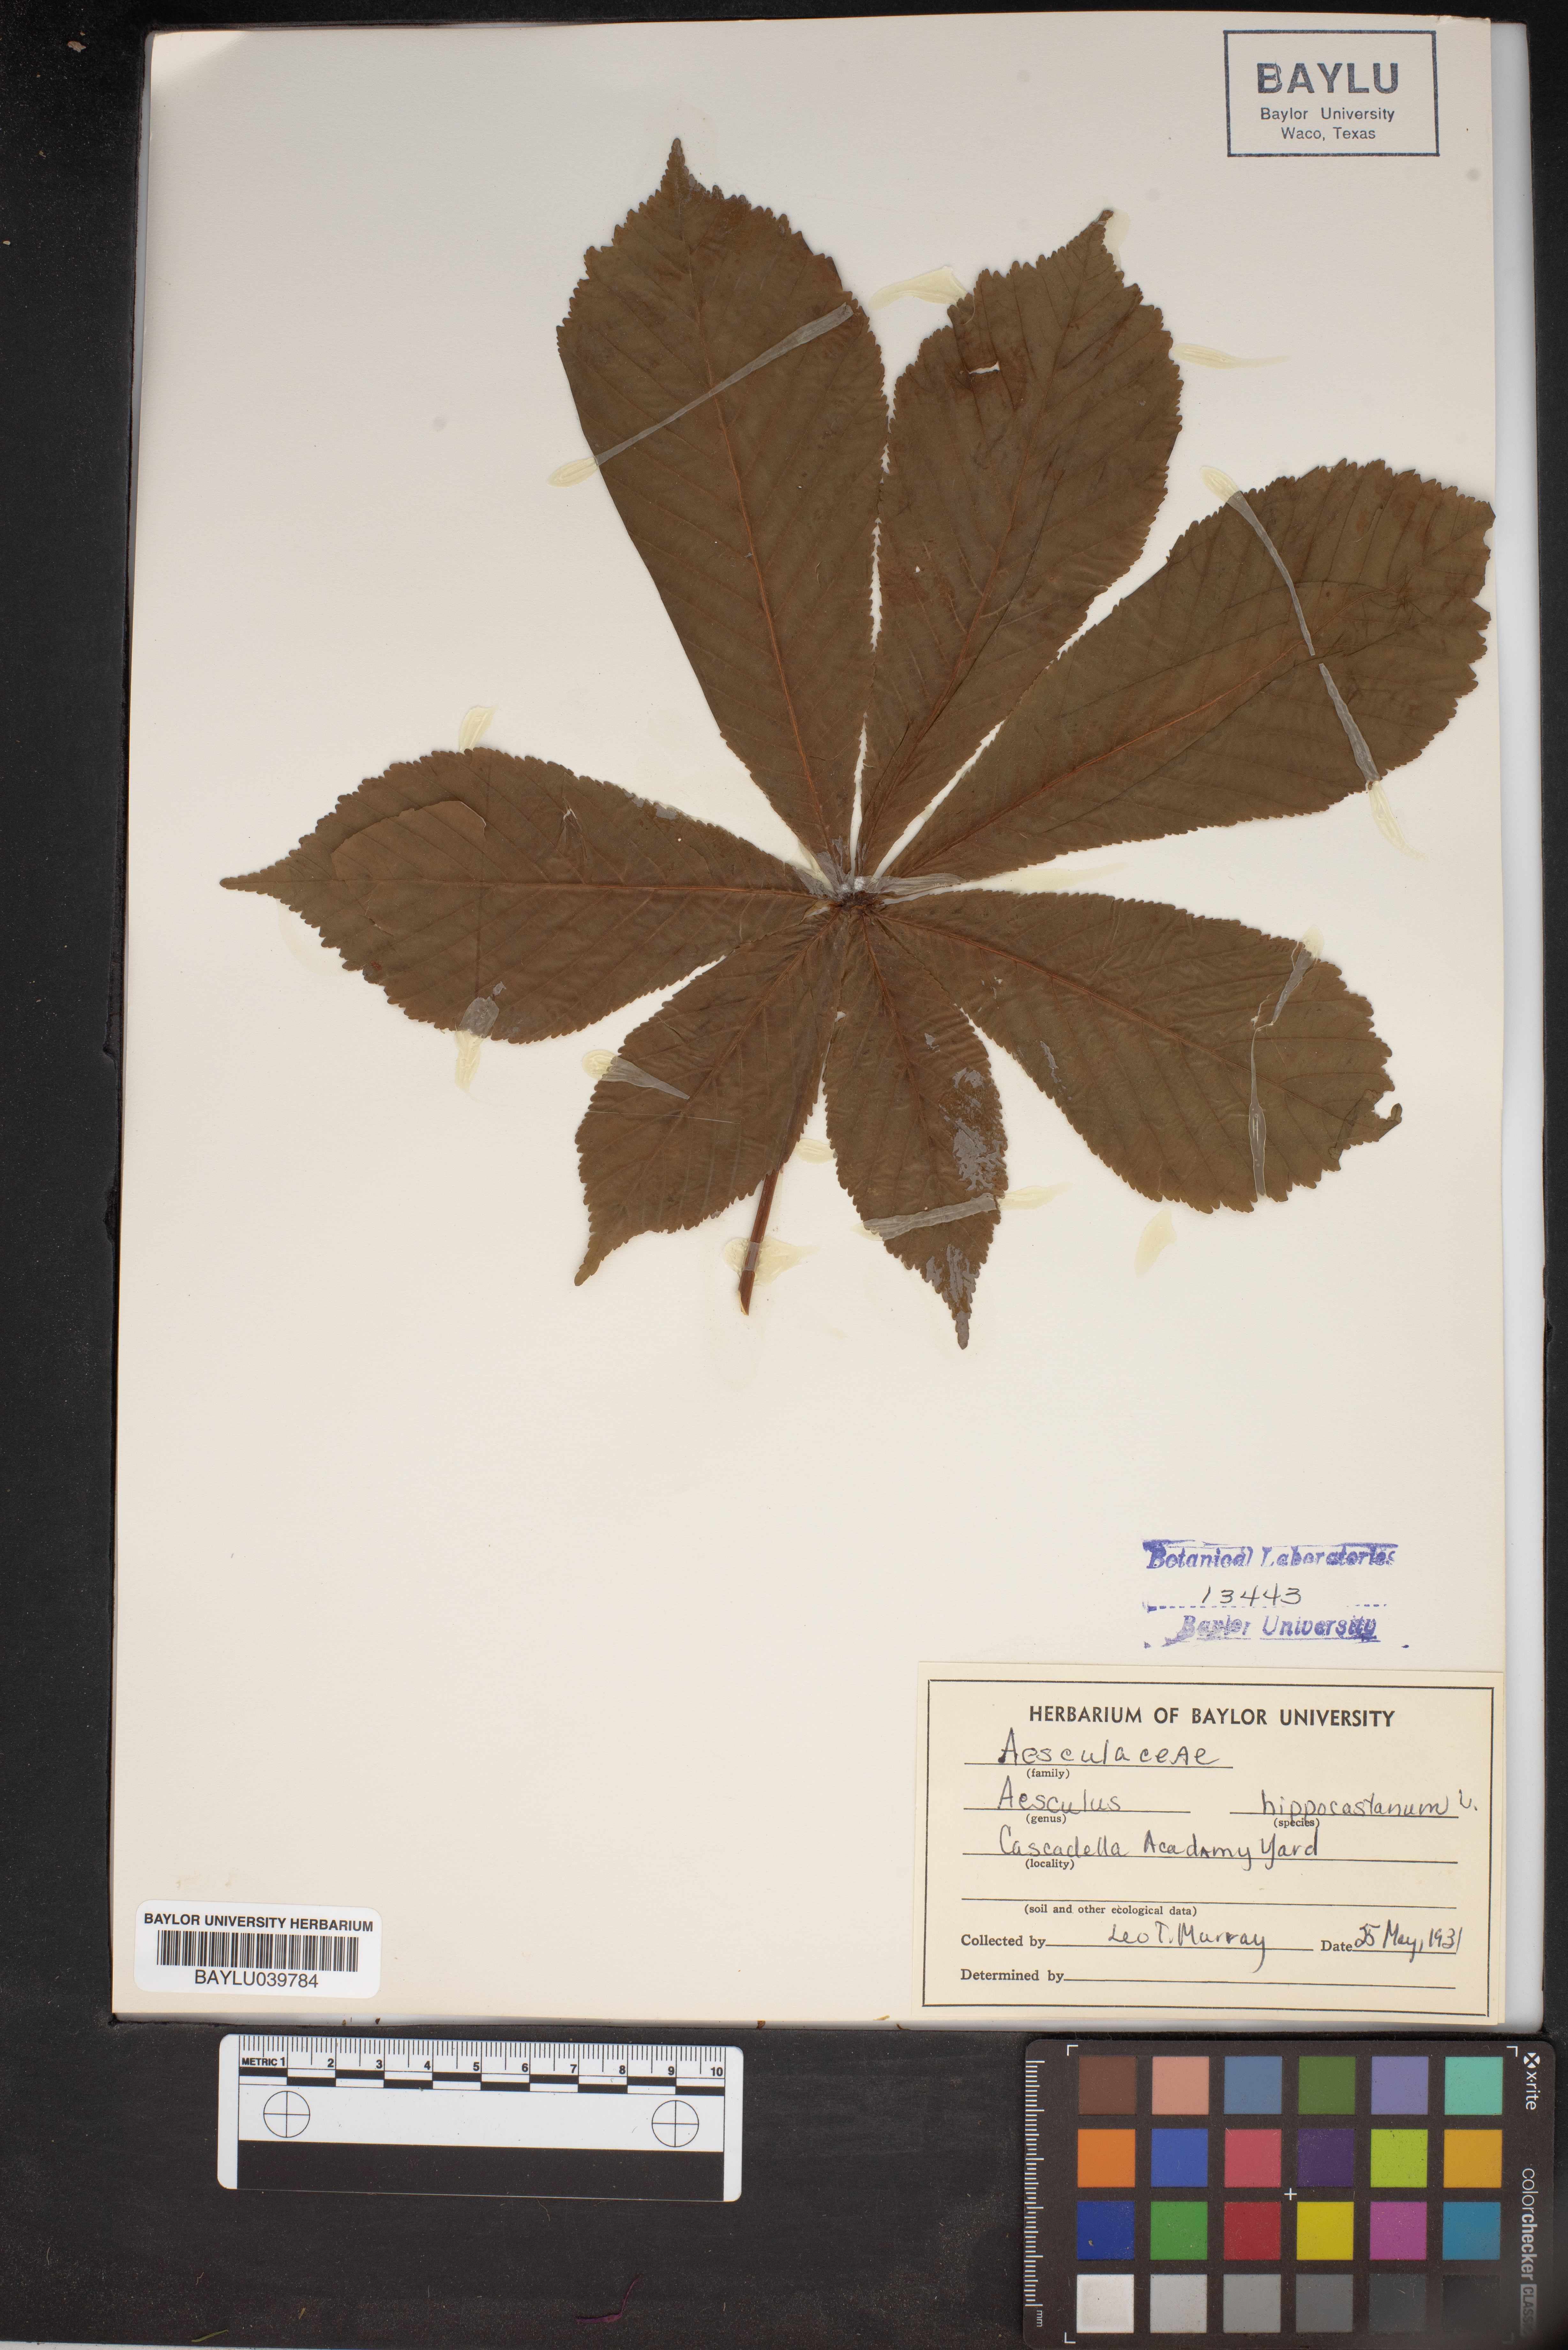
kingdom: Plantae
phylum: Tracheophyta
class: Magnoliopsida
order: Sapindales
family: Sapindaceae
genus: Aesculus
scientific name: Aesculus hippocastanum
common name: Horse-chestnut
